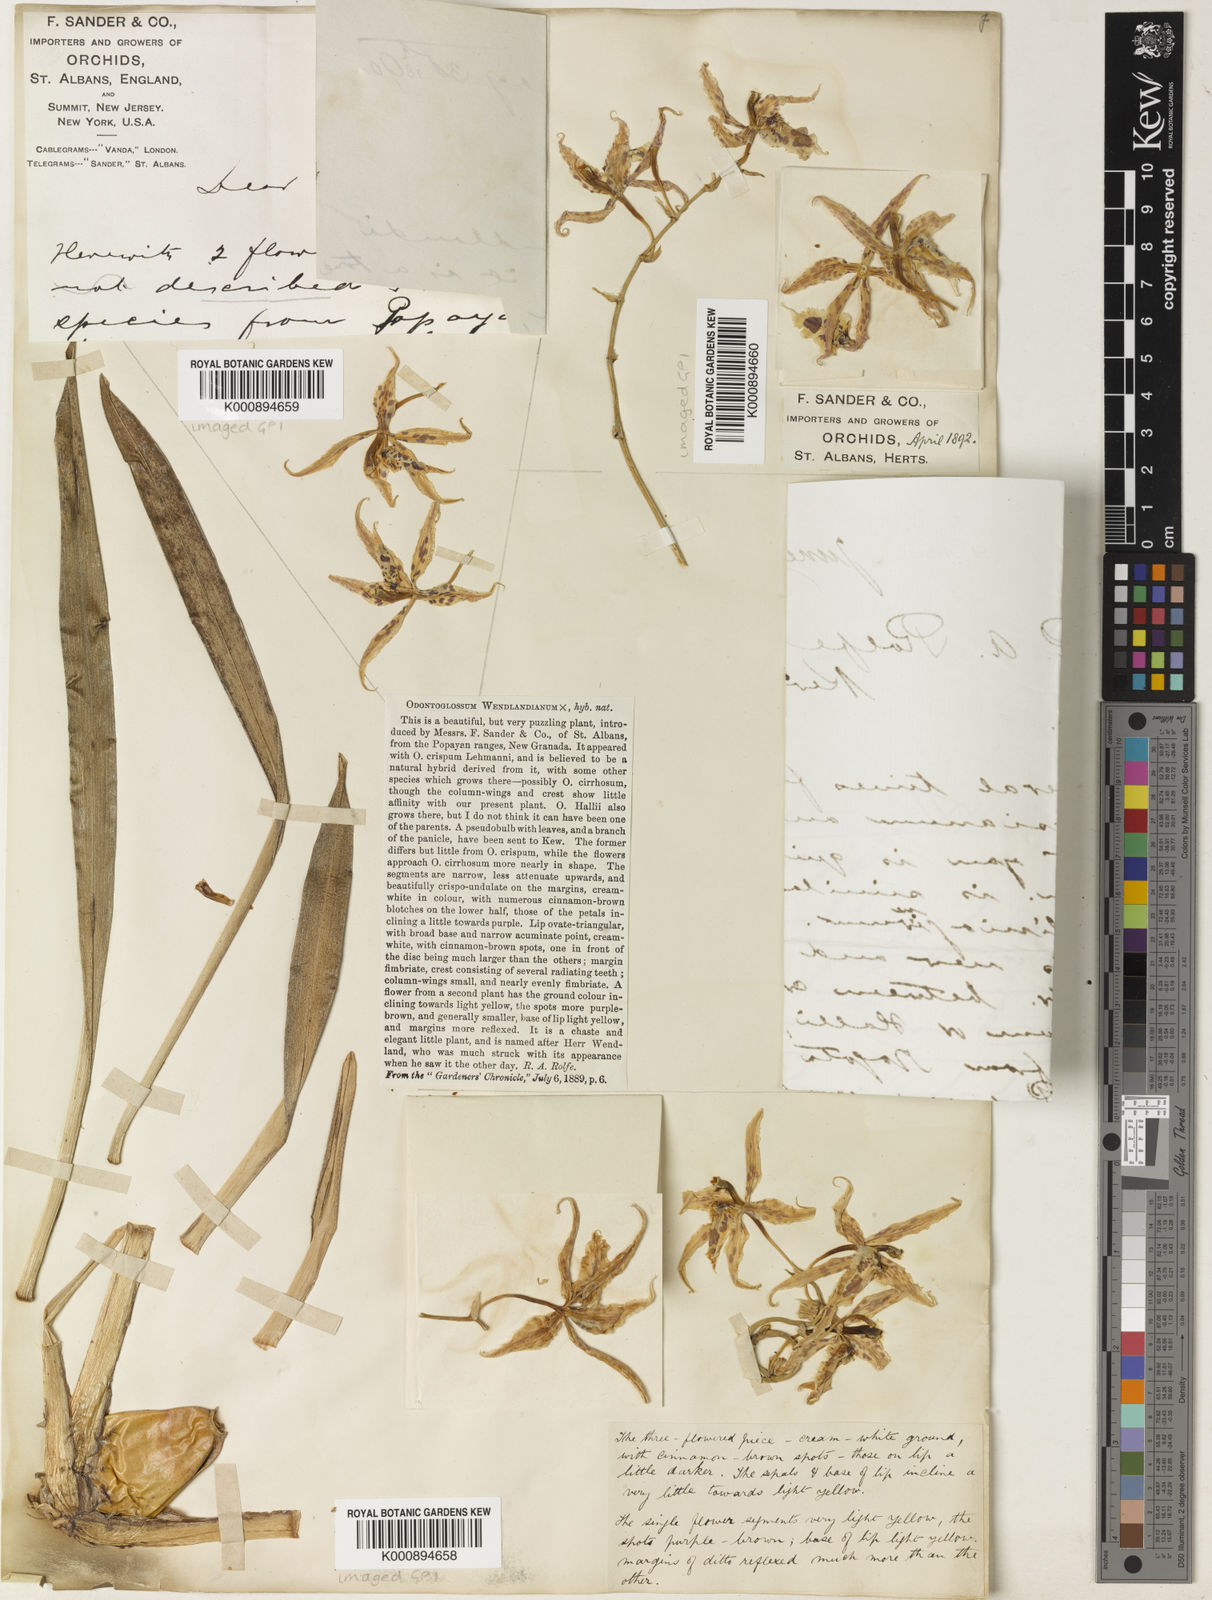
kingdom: Plantae
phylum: Tracheophyta
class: Liliopsida
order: Asparagales
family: Orchidaceae
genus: Oncidium
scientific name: Oncidium Odontoglossum wendlandianum
